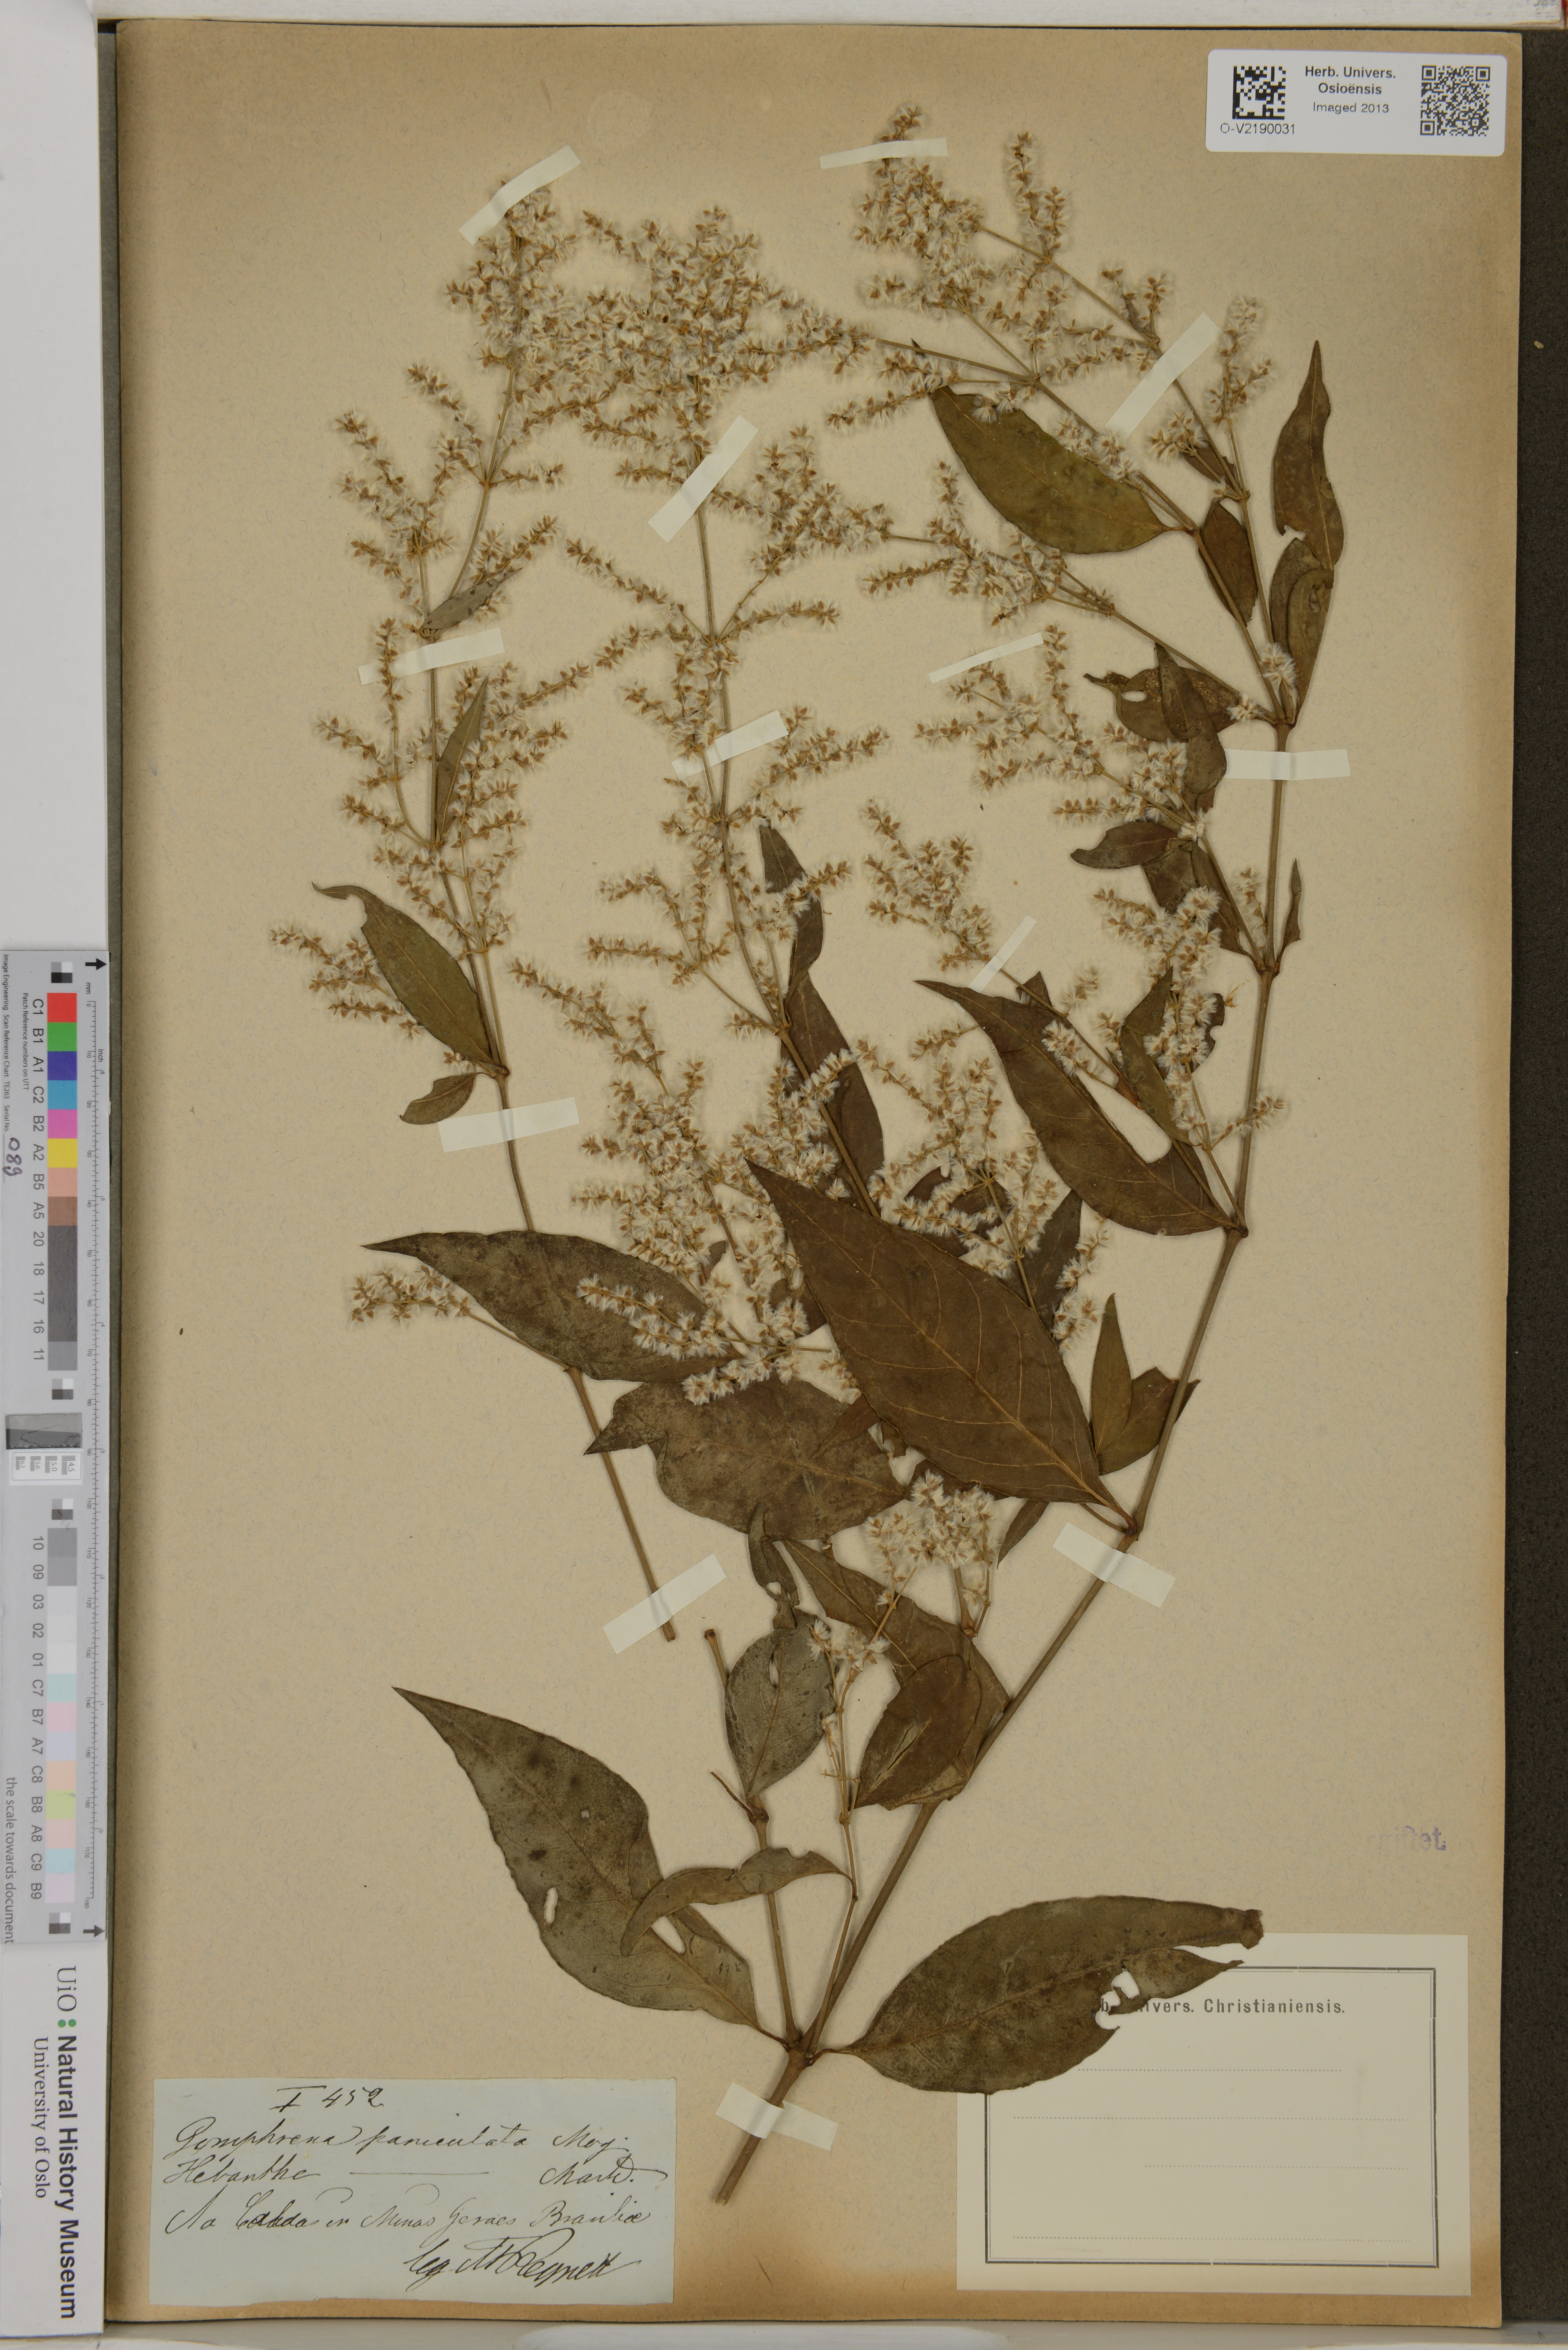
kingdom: Plantae
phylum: Tracheophyta
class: Magnoliopsida
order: Caryophyllales
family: Amaranthaceae
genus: Hebanthe
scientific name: Hebanthe erianthos
